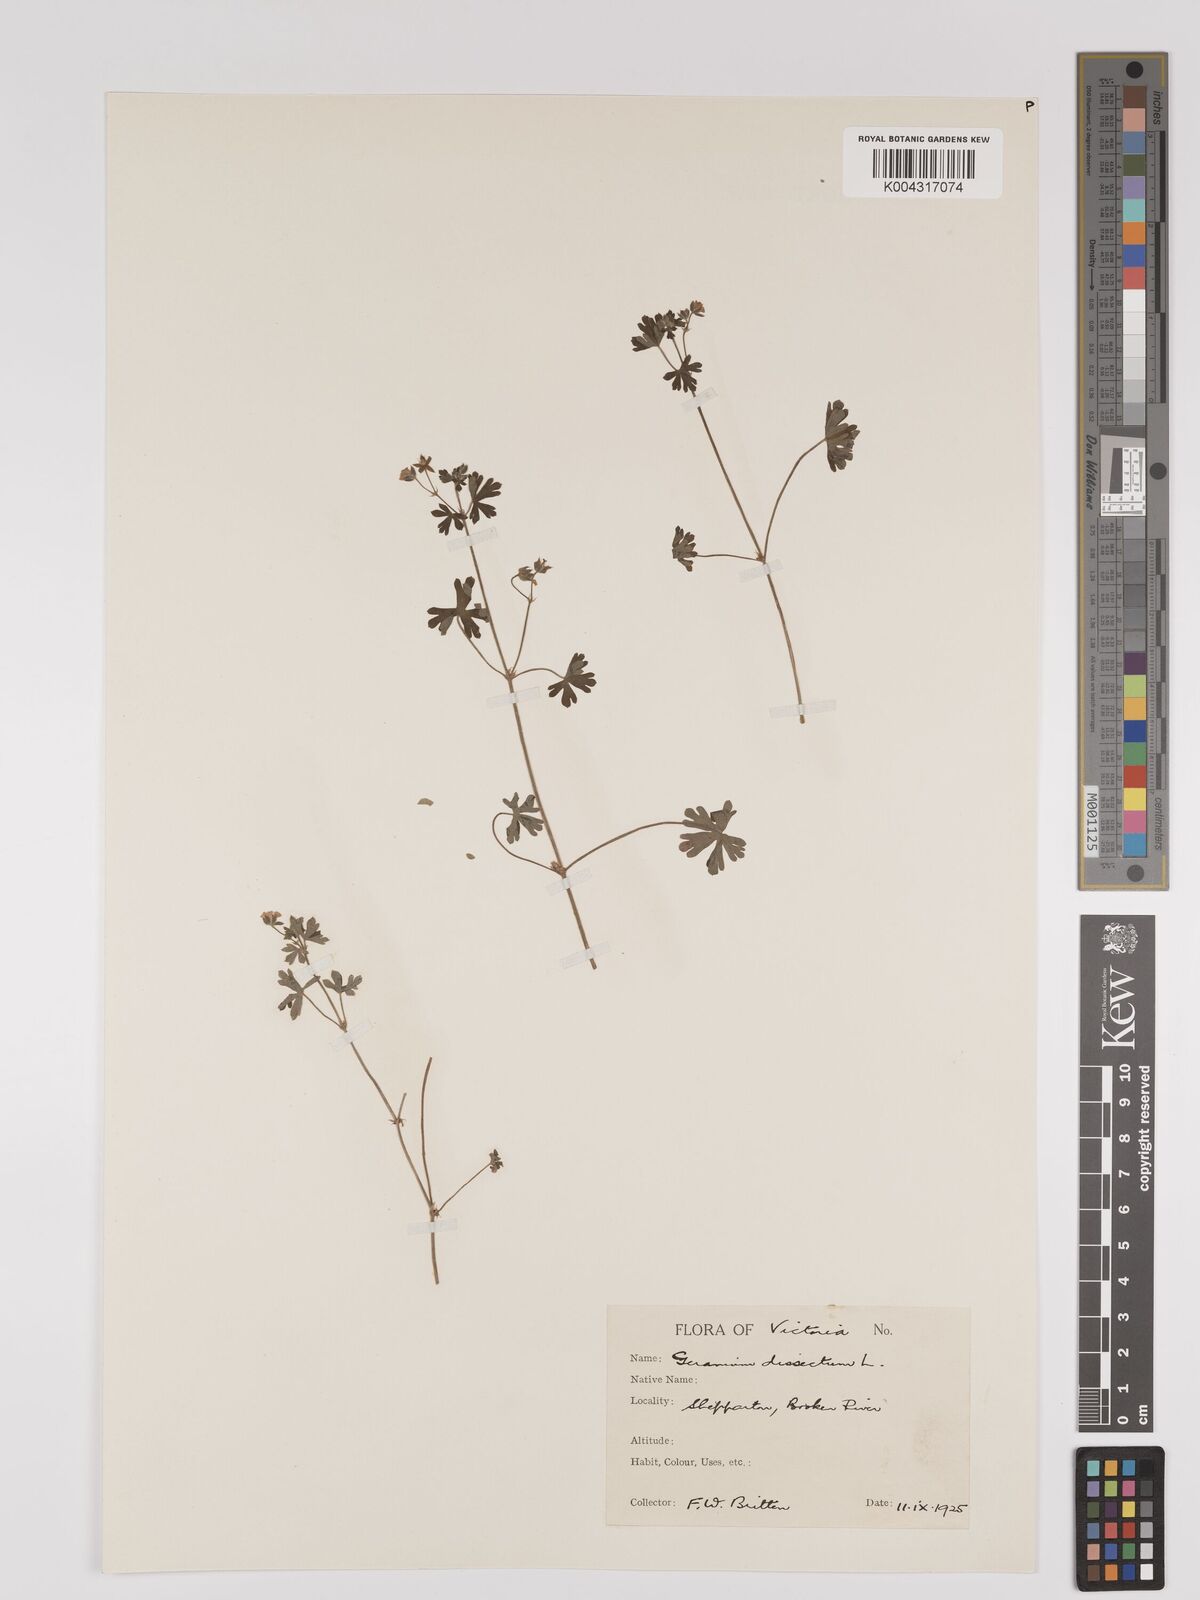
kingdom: Plantae
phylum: Tracheophyta
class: Magnoliopsida
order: Geraniales
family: Geraniaceae
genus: Geranium
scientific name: Geranium
